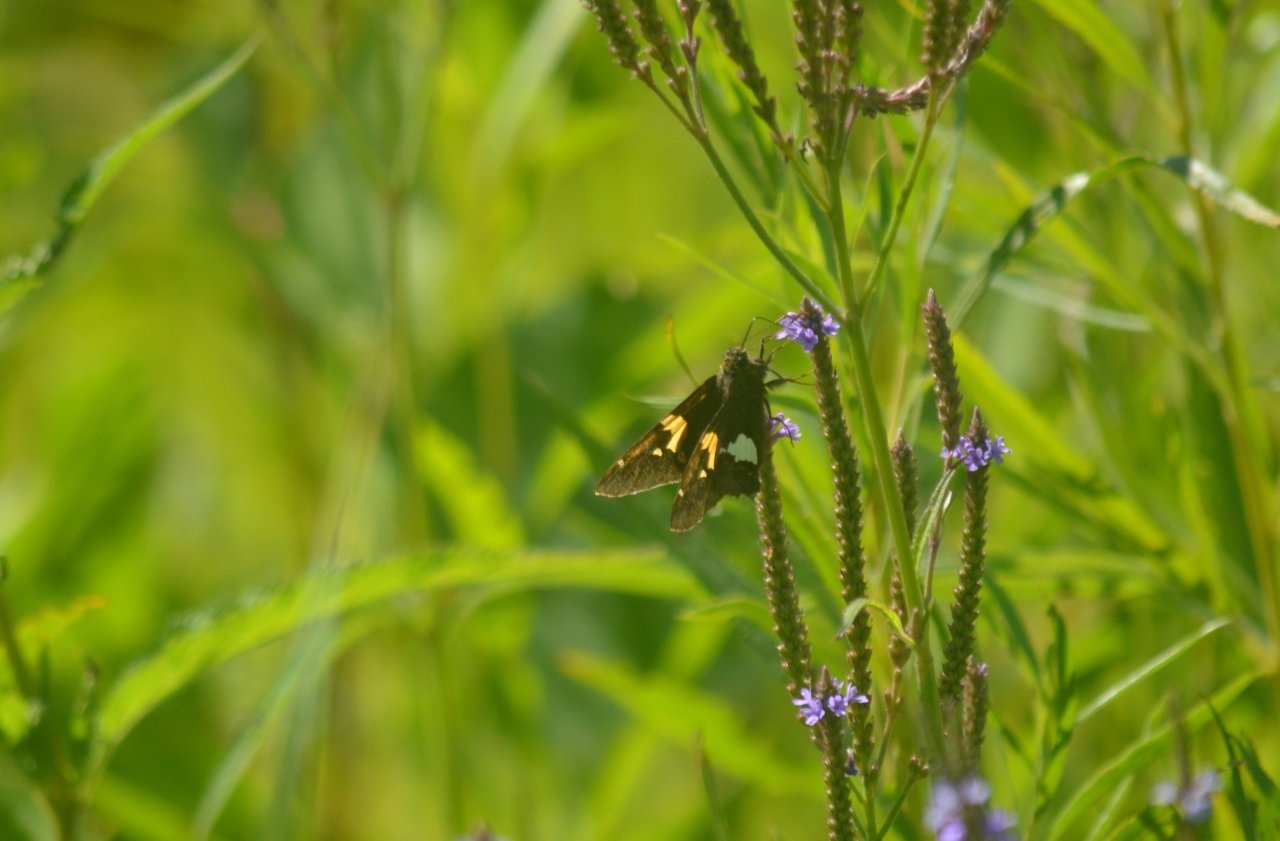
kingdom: Animalia
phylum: Arthropoda
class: Insecta
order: Lepidoptera
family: Hesperiidae
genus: Epargyreus
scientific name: Epargyreus clarus
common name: Silver-spotted Skipper
